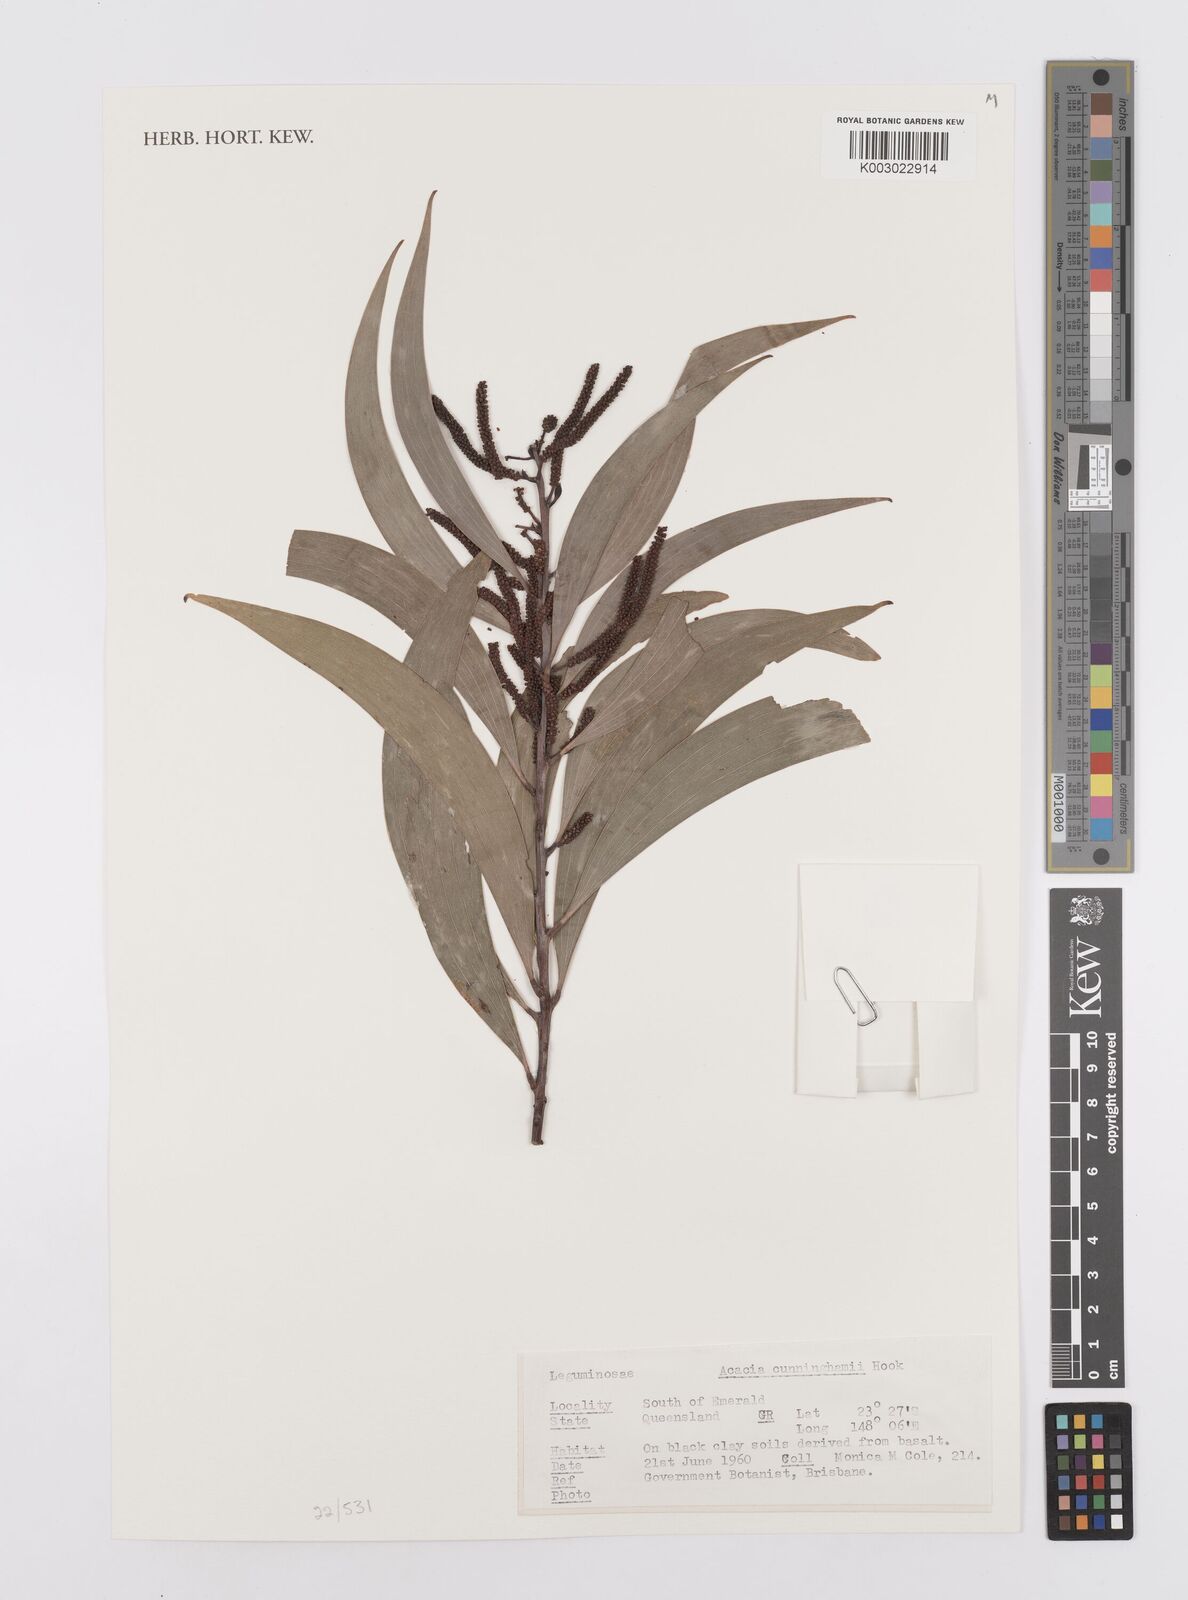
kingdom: Plantae
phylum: Tracheophyta
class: Magnoliopsida
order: Fabales
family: Fabaceae
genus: Acacia
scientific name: Acacia longispicata
